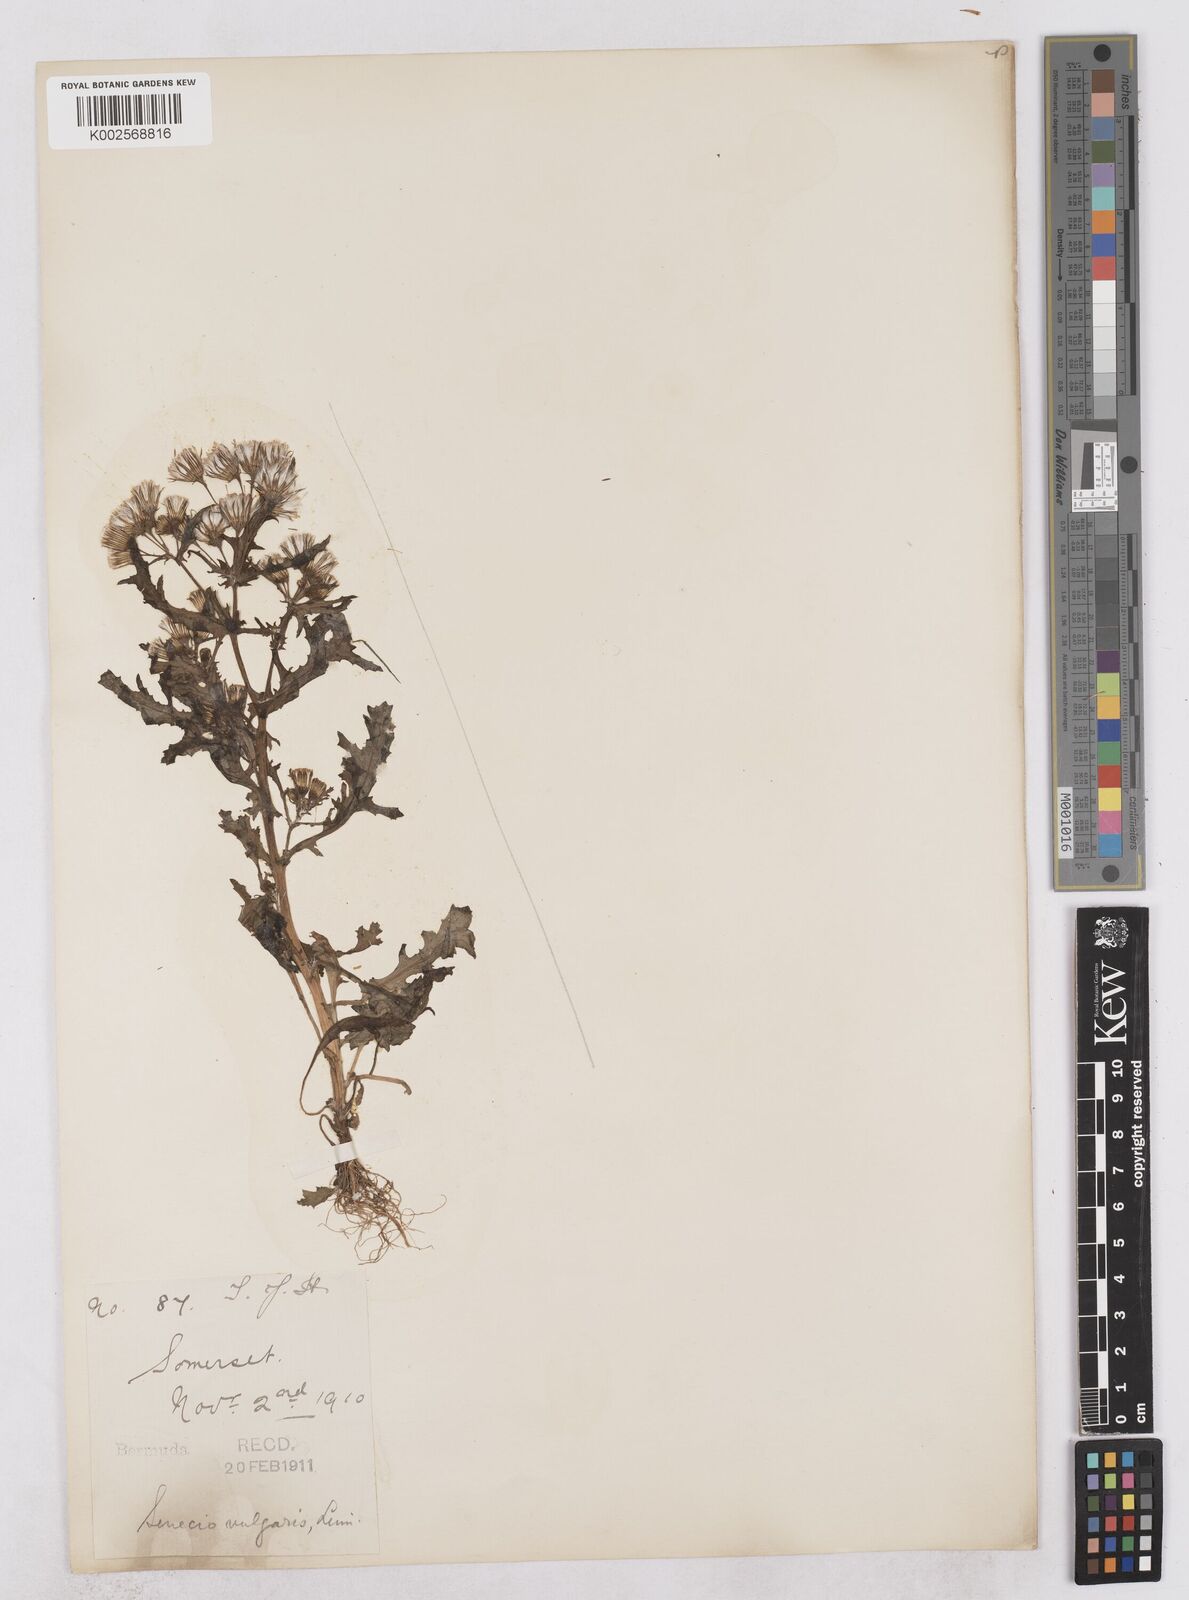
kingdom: Plantae
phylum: Tracheophyta
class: Magnoliopsida
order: Asterales
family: Asteraceae
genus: Senecio
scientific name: Senecio vulgaris
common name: Old-man-in-the-spring
